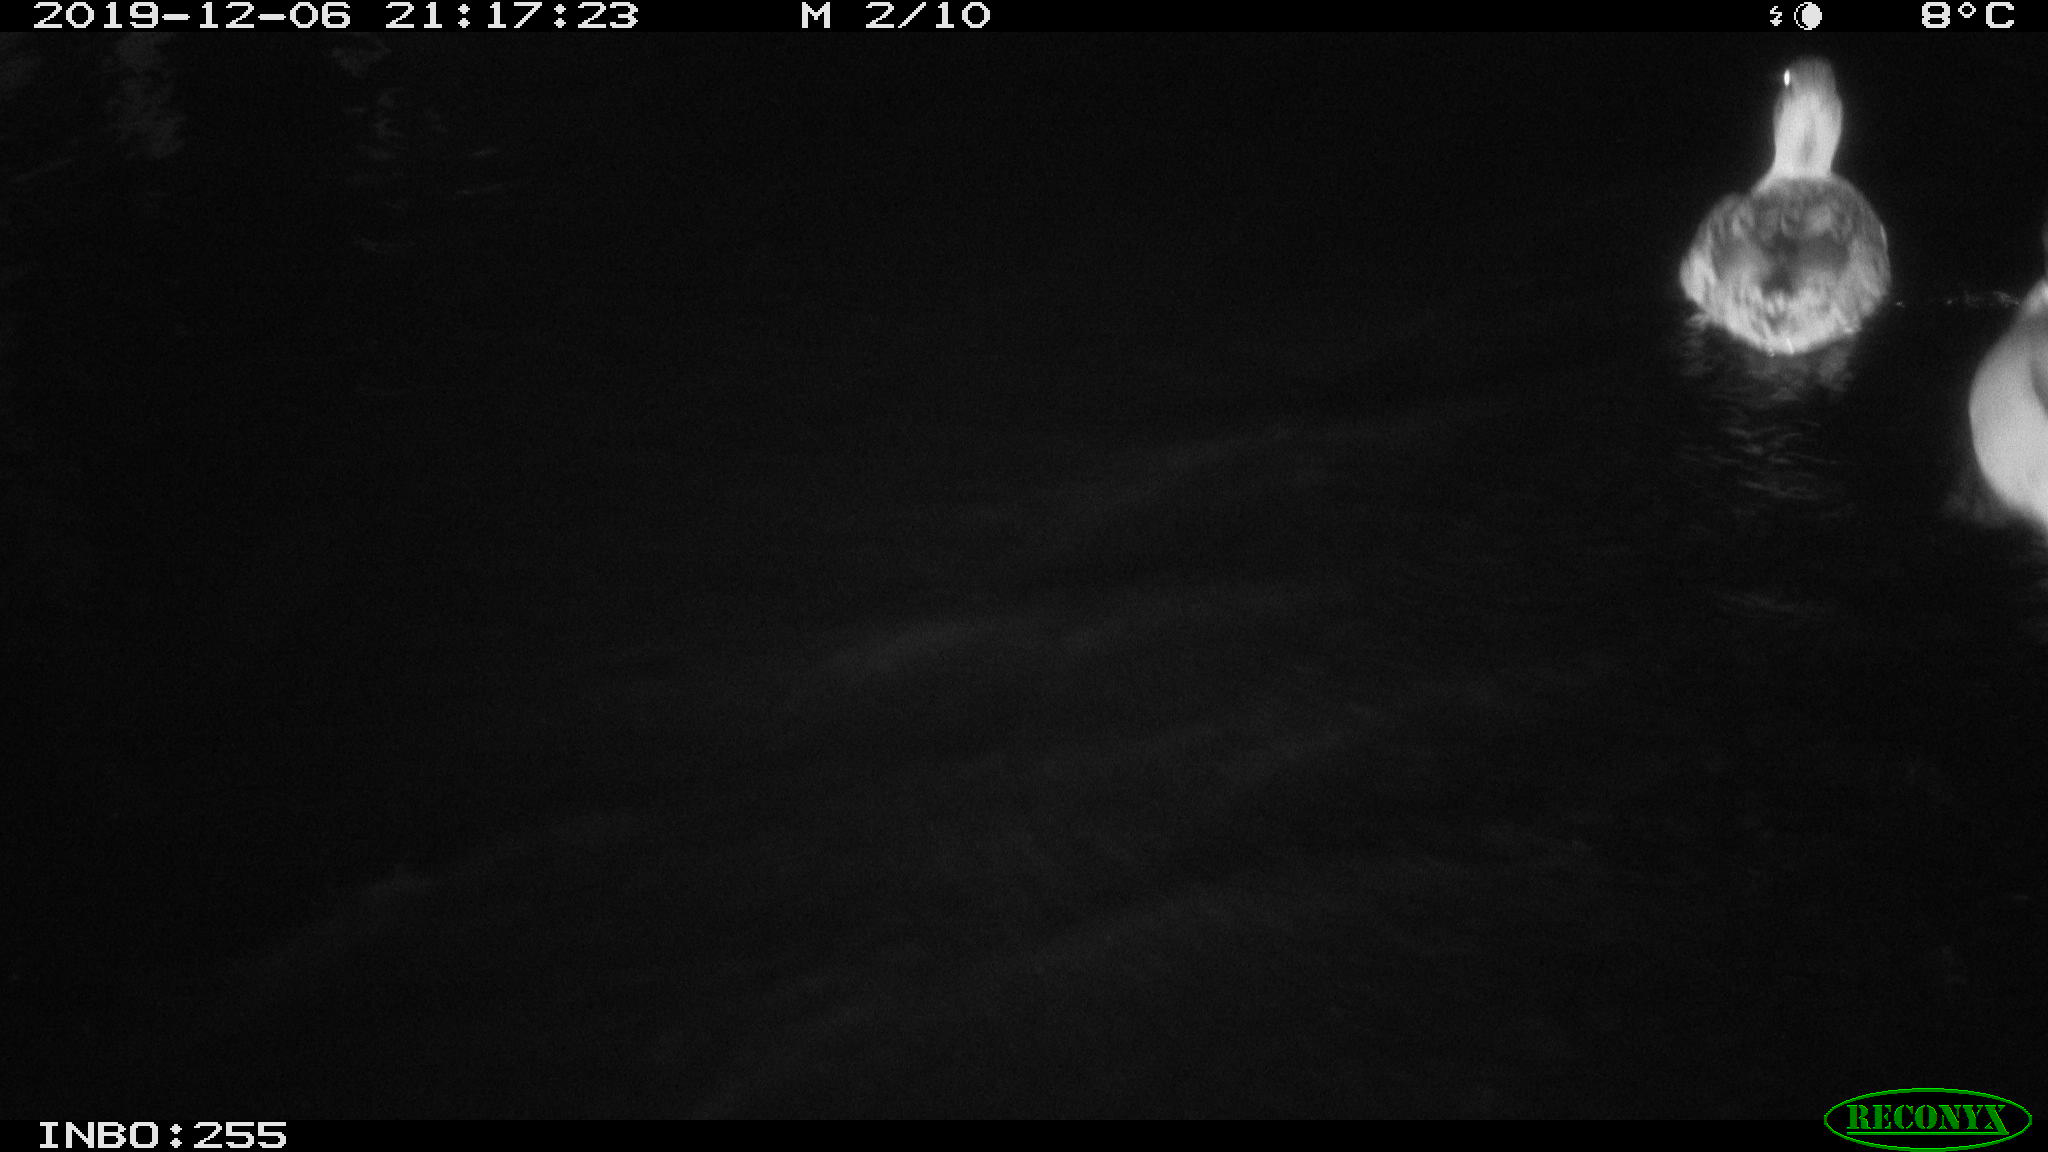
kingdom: Animalia
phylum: Chordata
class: Aves
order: Anseriformes
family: Anatidae
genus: Anas
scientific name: Anas platyrhynchos
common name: Mallard
